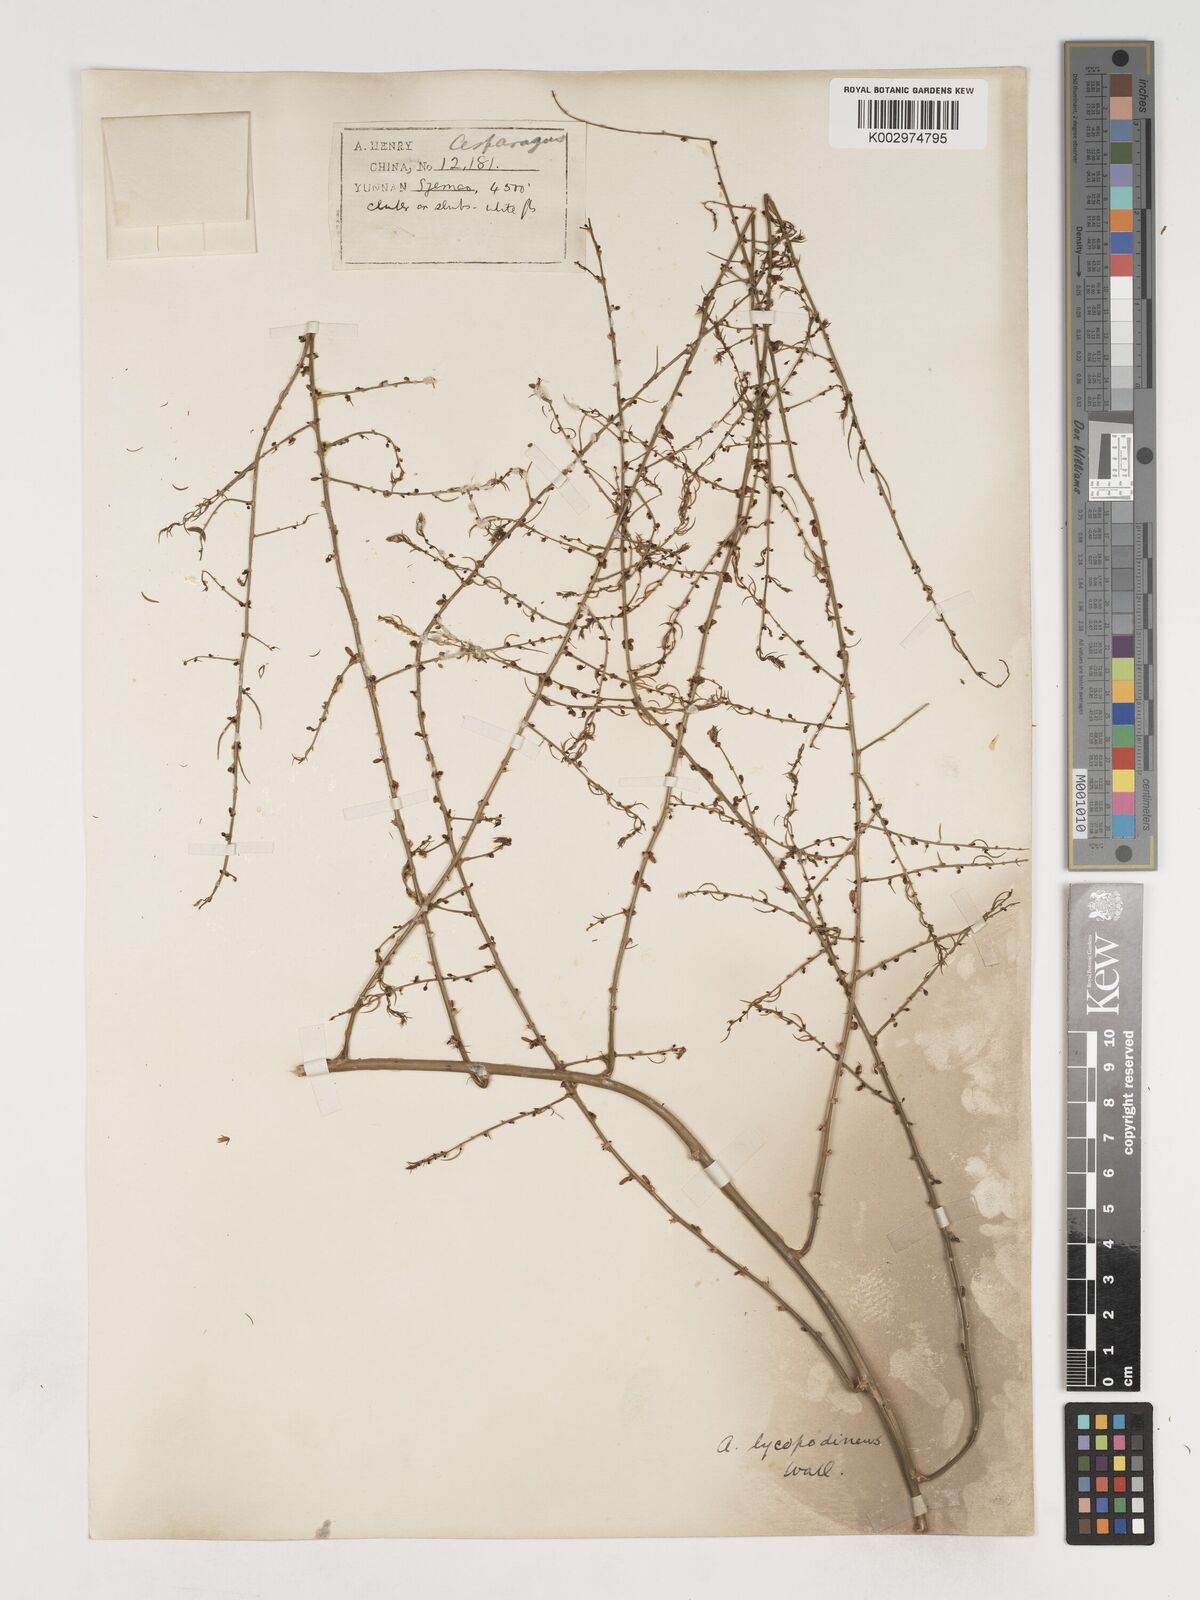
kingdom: Plantae
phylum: Tracheophyta
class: Liliopsida
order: Asparagales
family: Asparagaceae
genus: Asparagus
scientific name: Asparagus filicinus
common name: Fern asparagus
